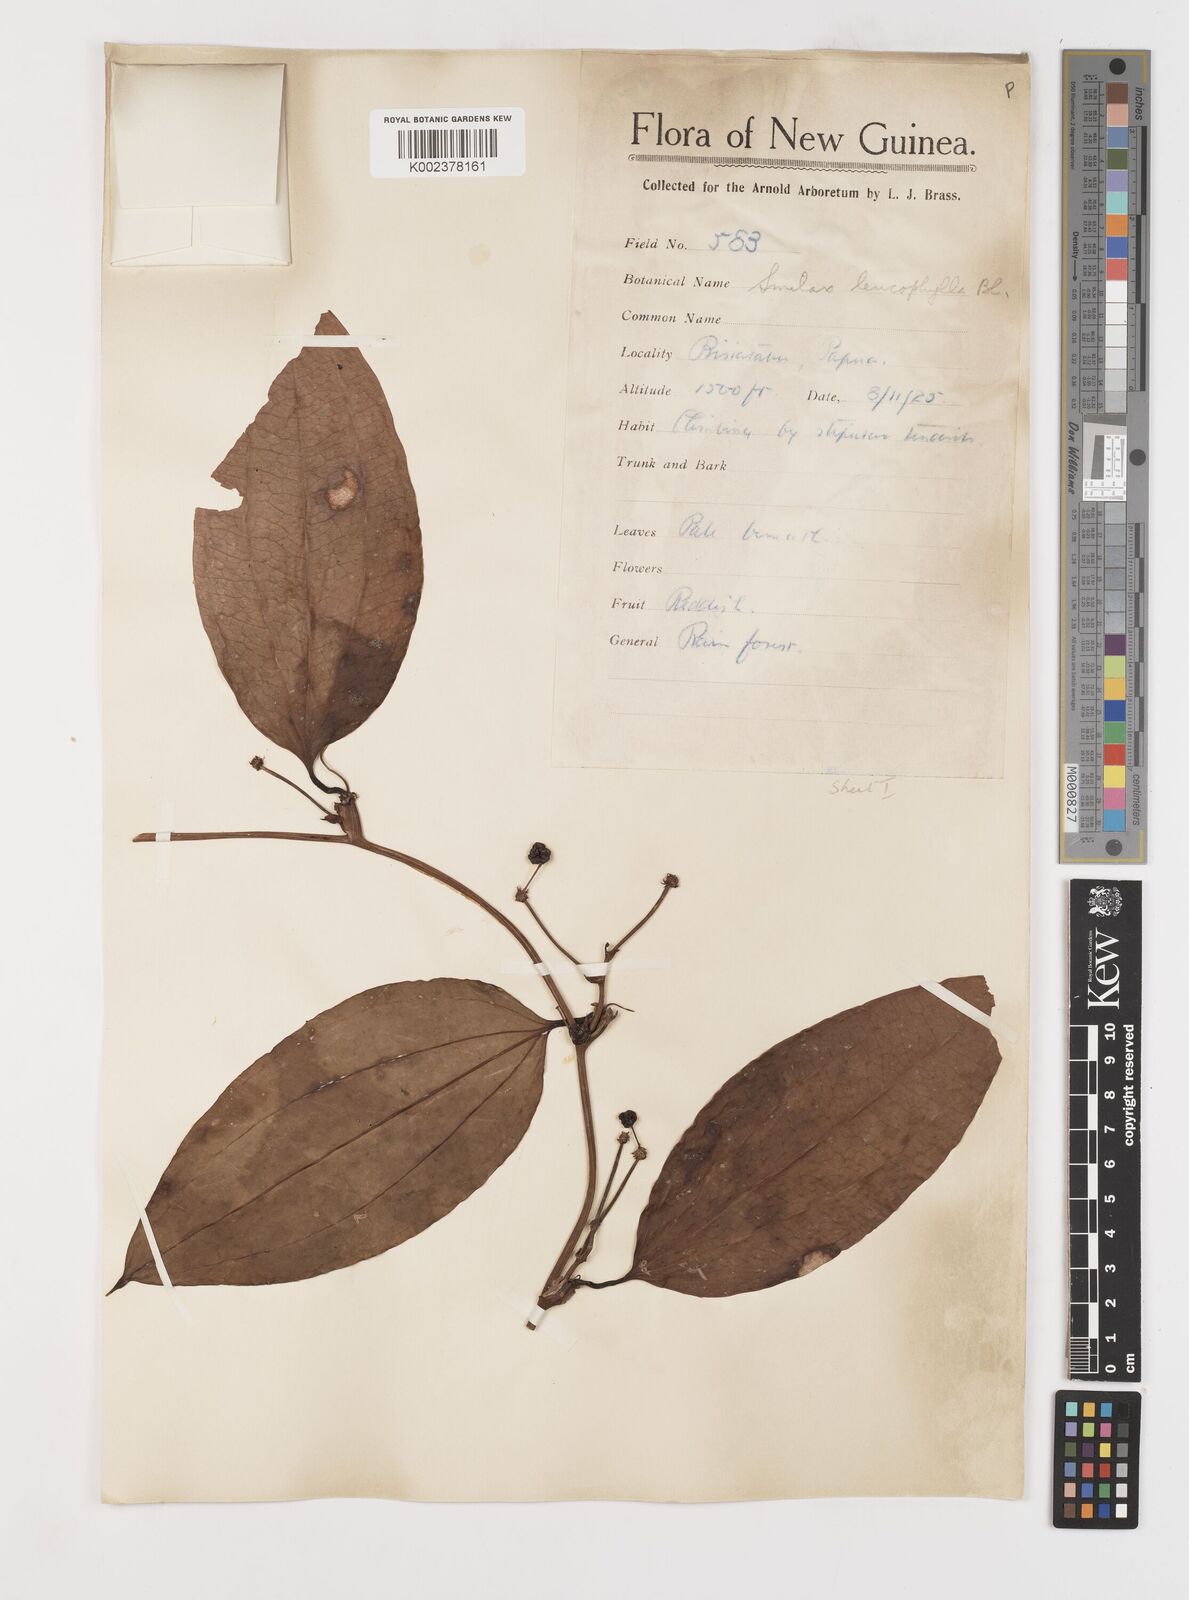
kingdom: Plantae
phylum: Tracheophyta
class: Liliopsida
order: Liliales
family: Smilacaceae
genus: Smilax
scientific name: Smilax leucophylla
